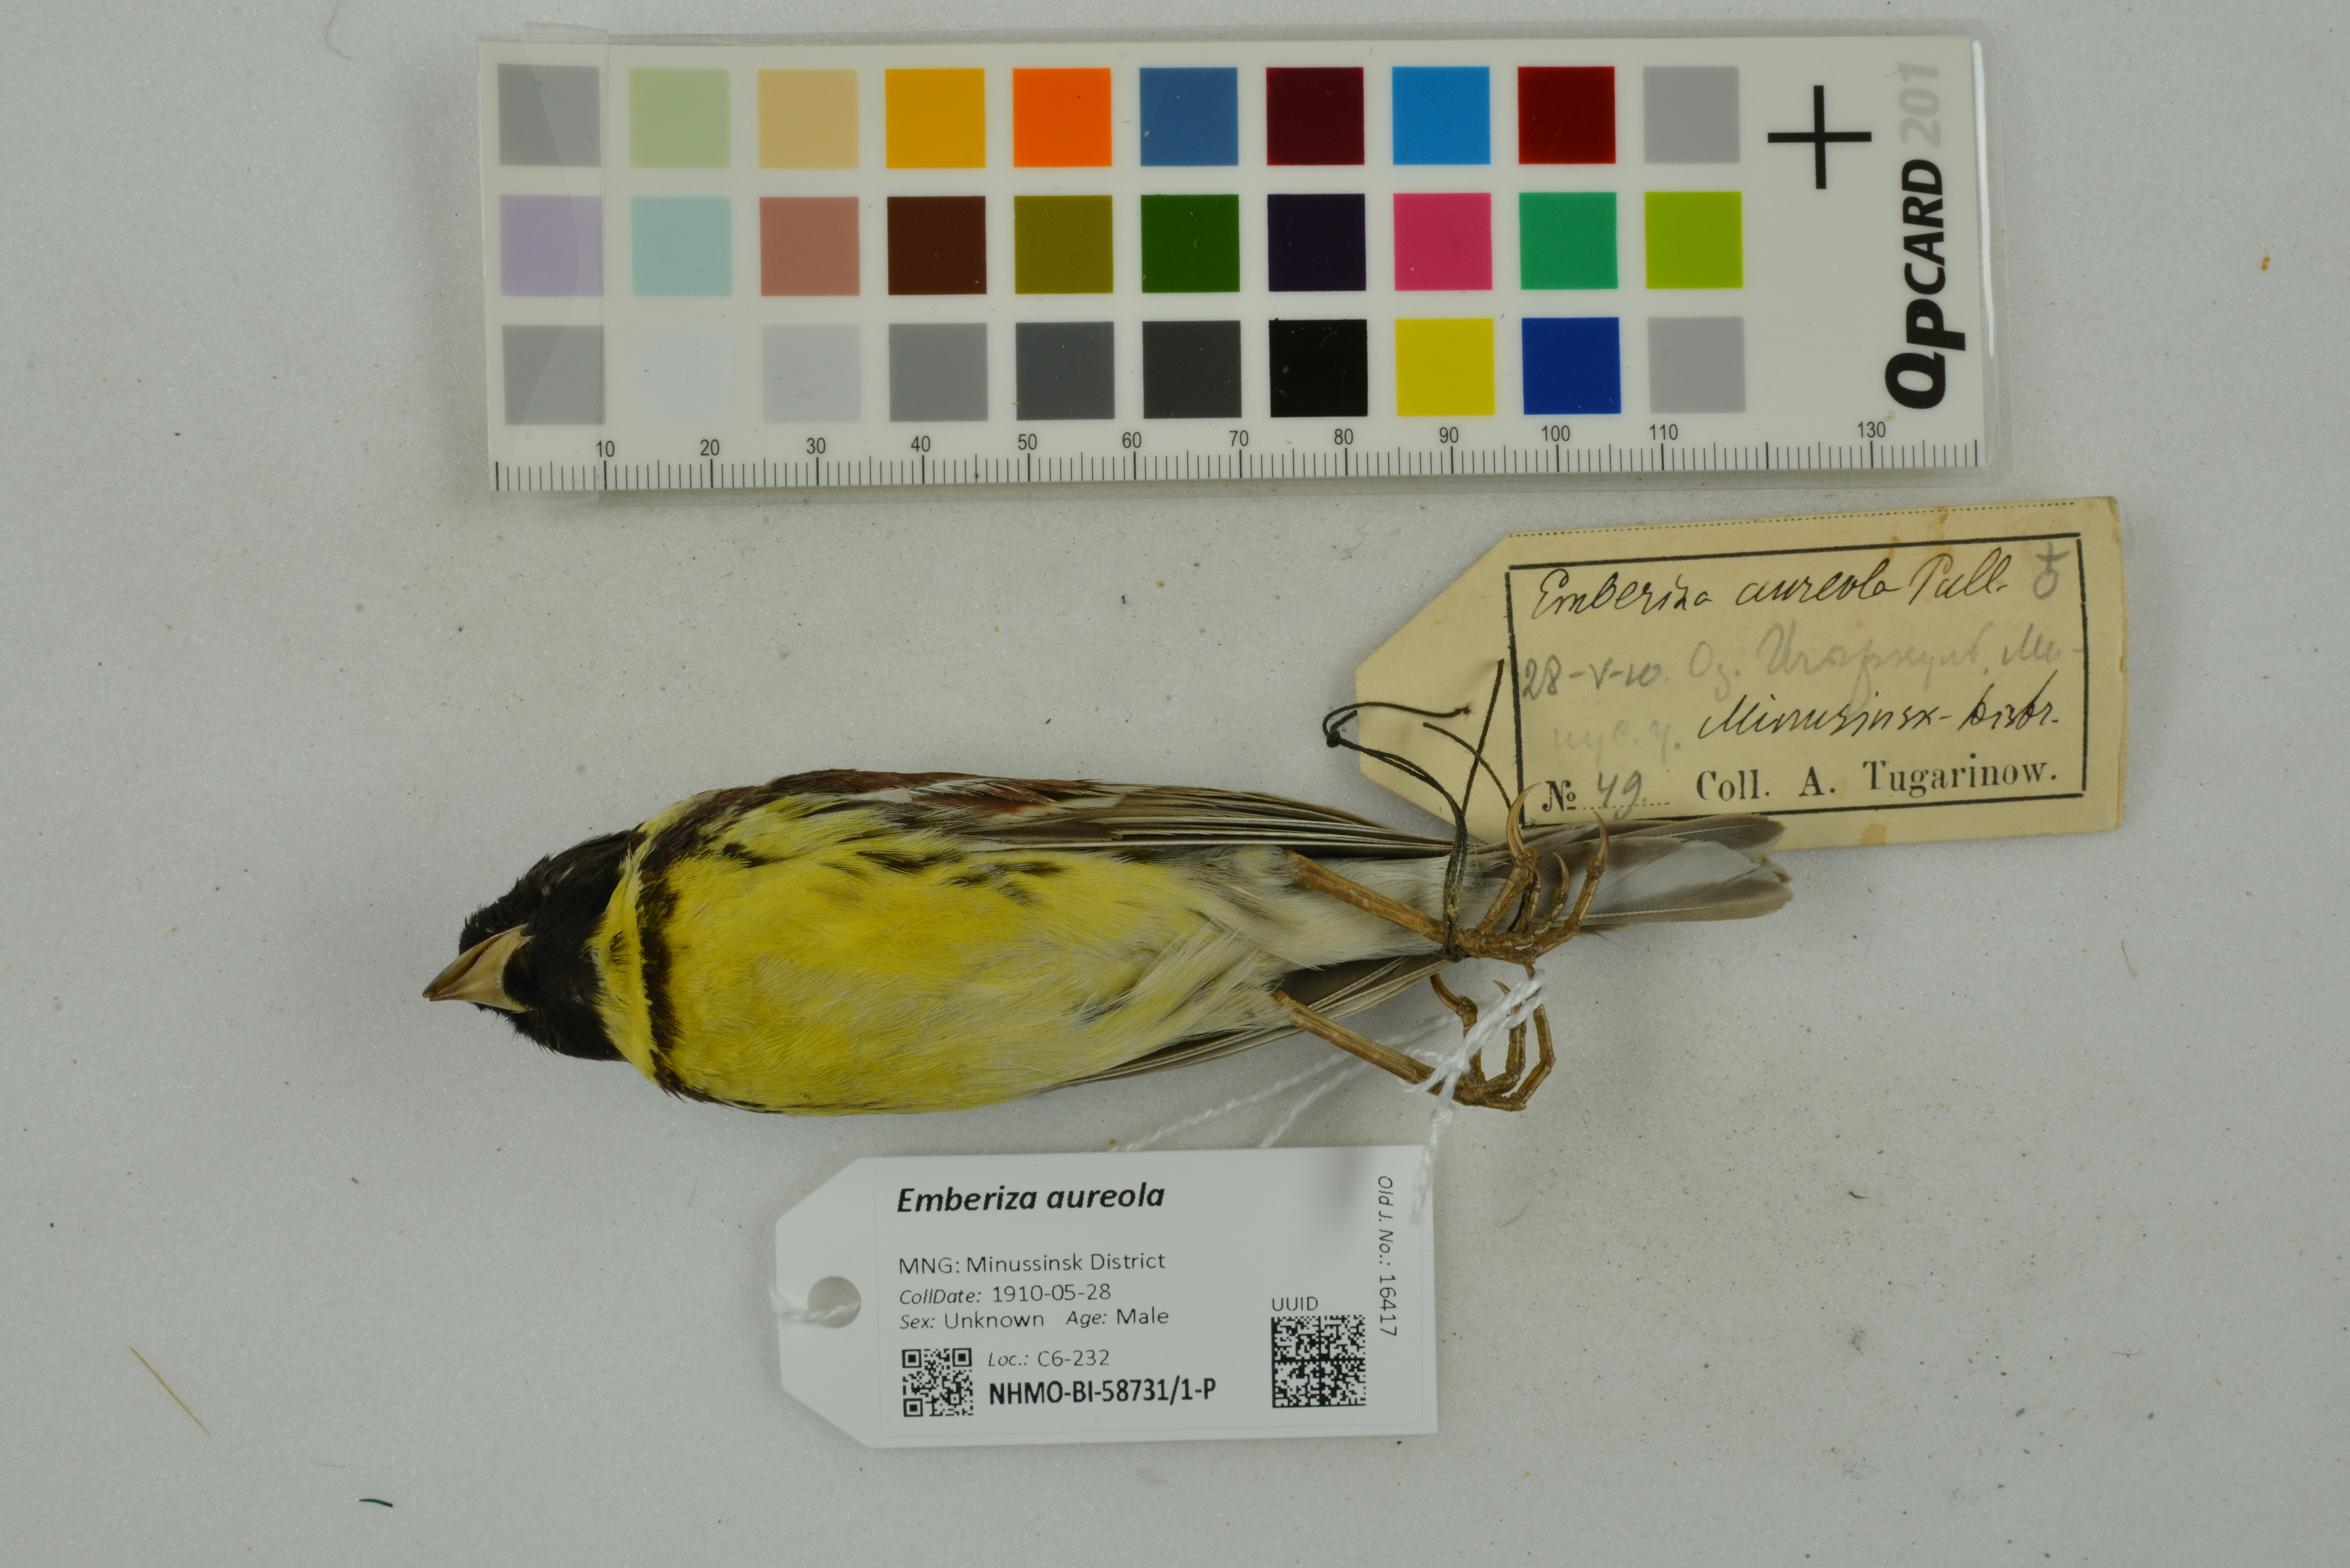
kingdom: Animalia
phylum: Chordata
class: Aves
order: Passeriformes
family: Emberizidae
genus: Emberiza
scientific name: Emberiza aureola
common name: Yellow-breasted bunting
